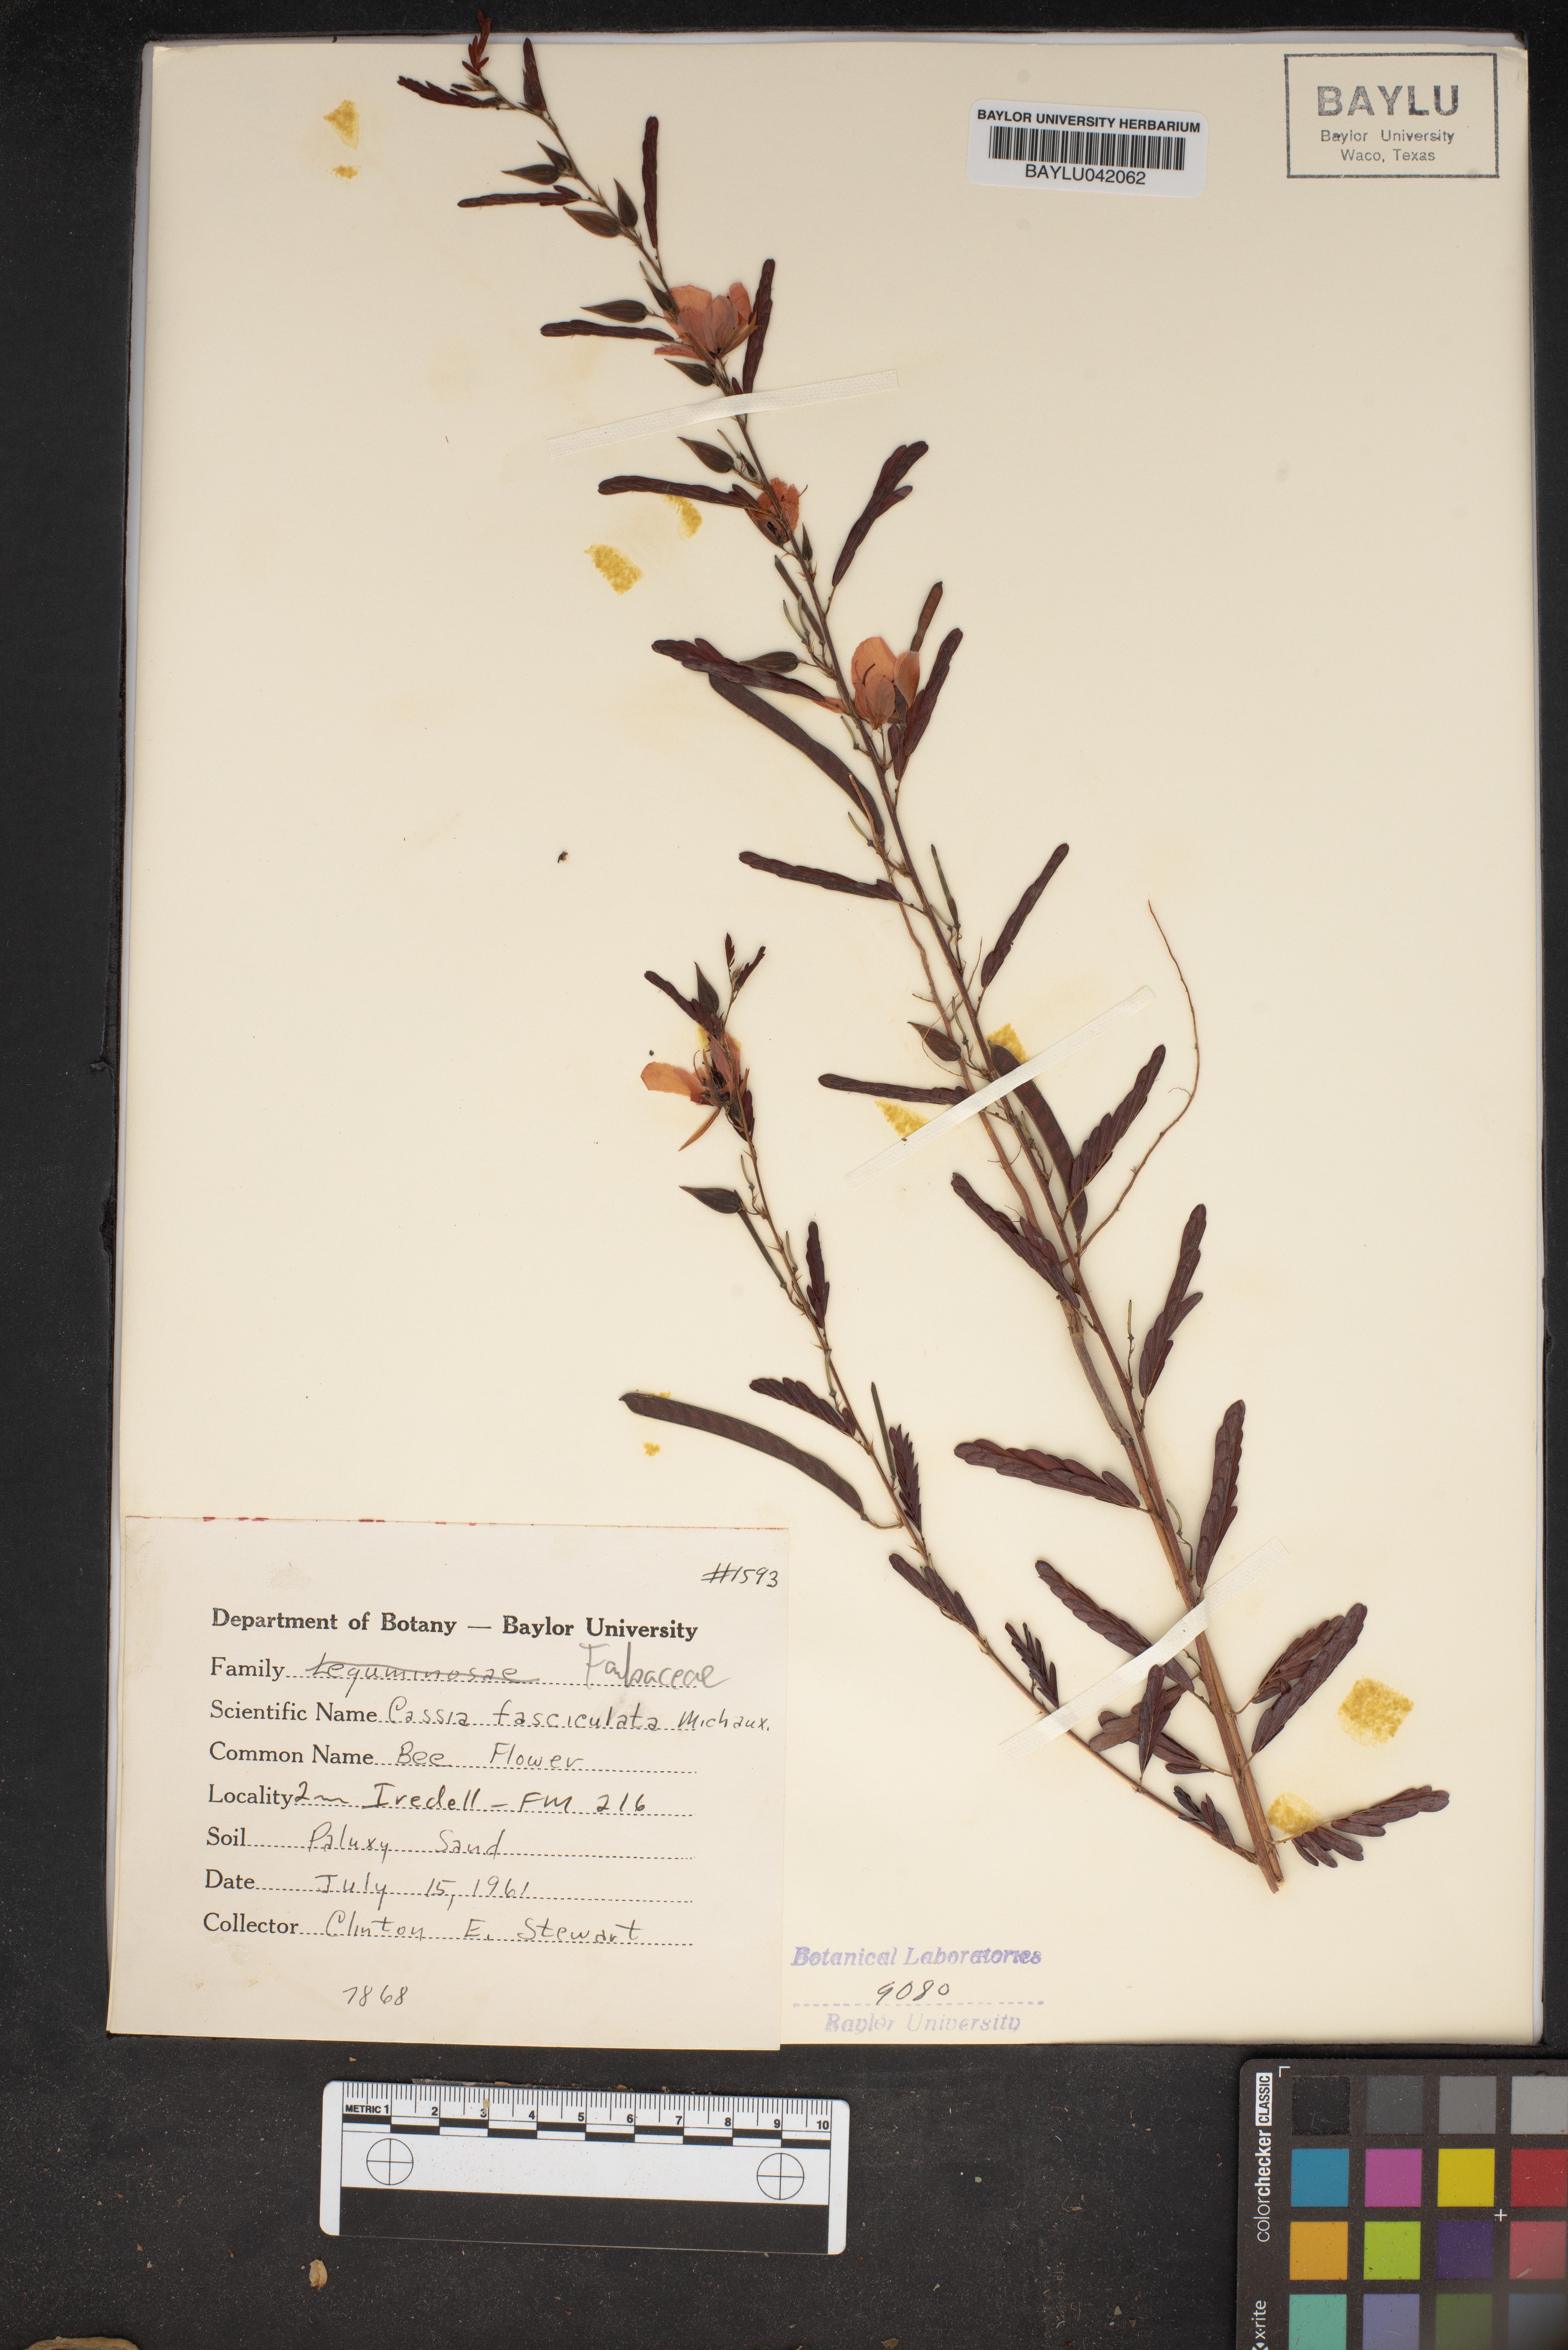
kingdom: Plantae
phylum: Tracheophyta
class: Magnoliopsida
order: Fabales
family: Fabaceae
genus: Chamaecrista
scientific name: Chamaecrista fasciculata
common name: Golden cassia
